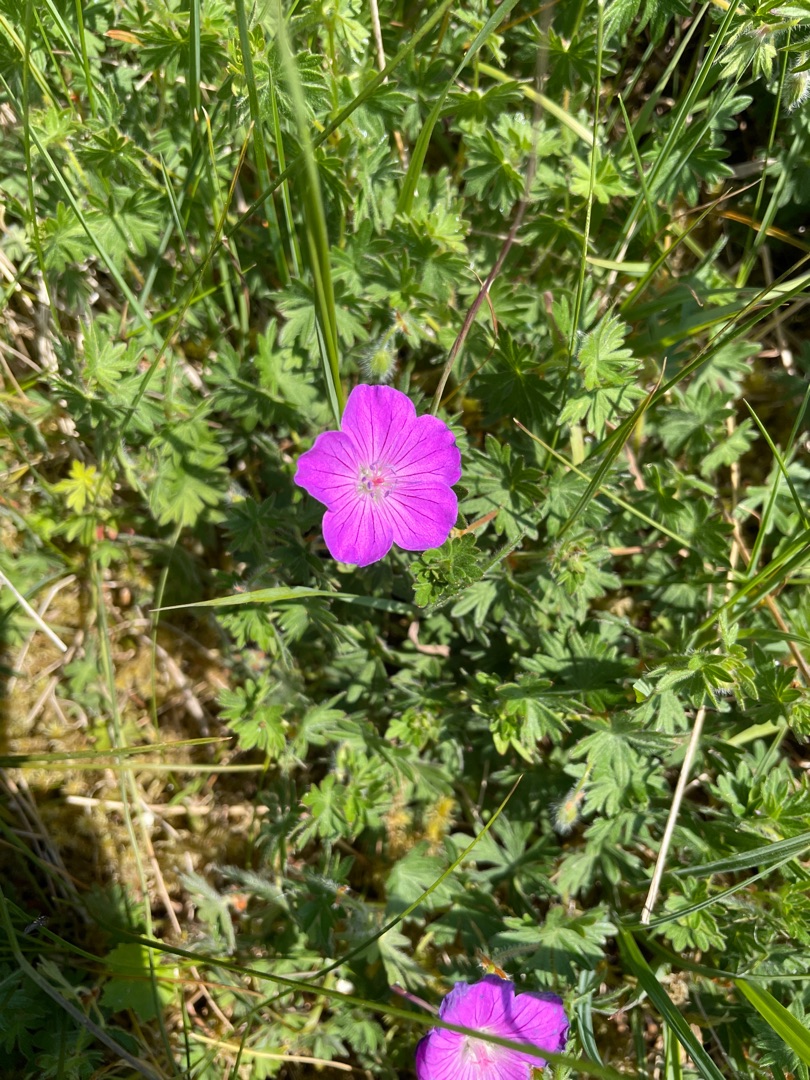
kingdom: Plantae
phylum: Tracheophyta
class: Magnoliopsida
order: Geraniales
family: Geraniaceae
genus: Geranium
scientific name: Geranium sanguineum
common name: Blodrød storkenæb
